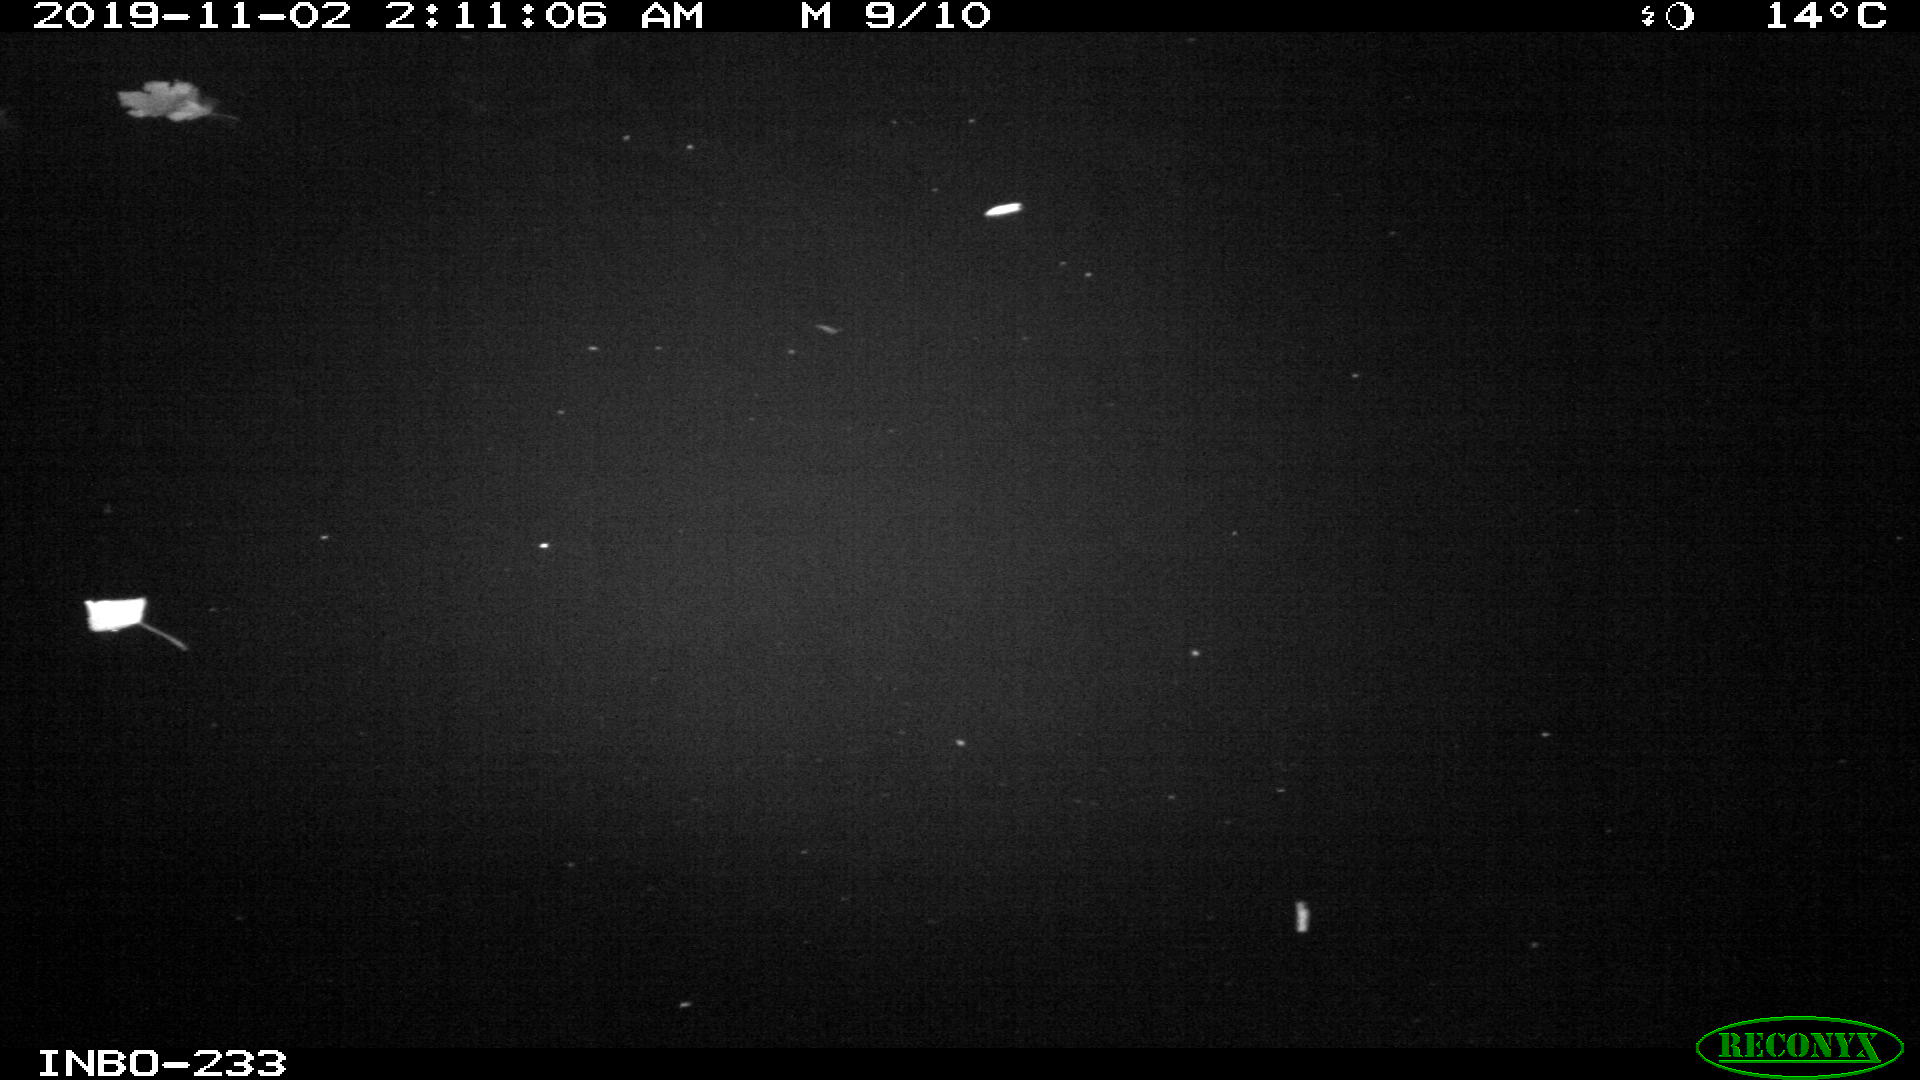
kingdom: Animalia
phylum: Chordata
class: Aves
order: Anseriformes
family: Anatidae
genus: Anas
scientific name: Anas platyrhynchos
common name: Mallard
